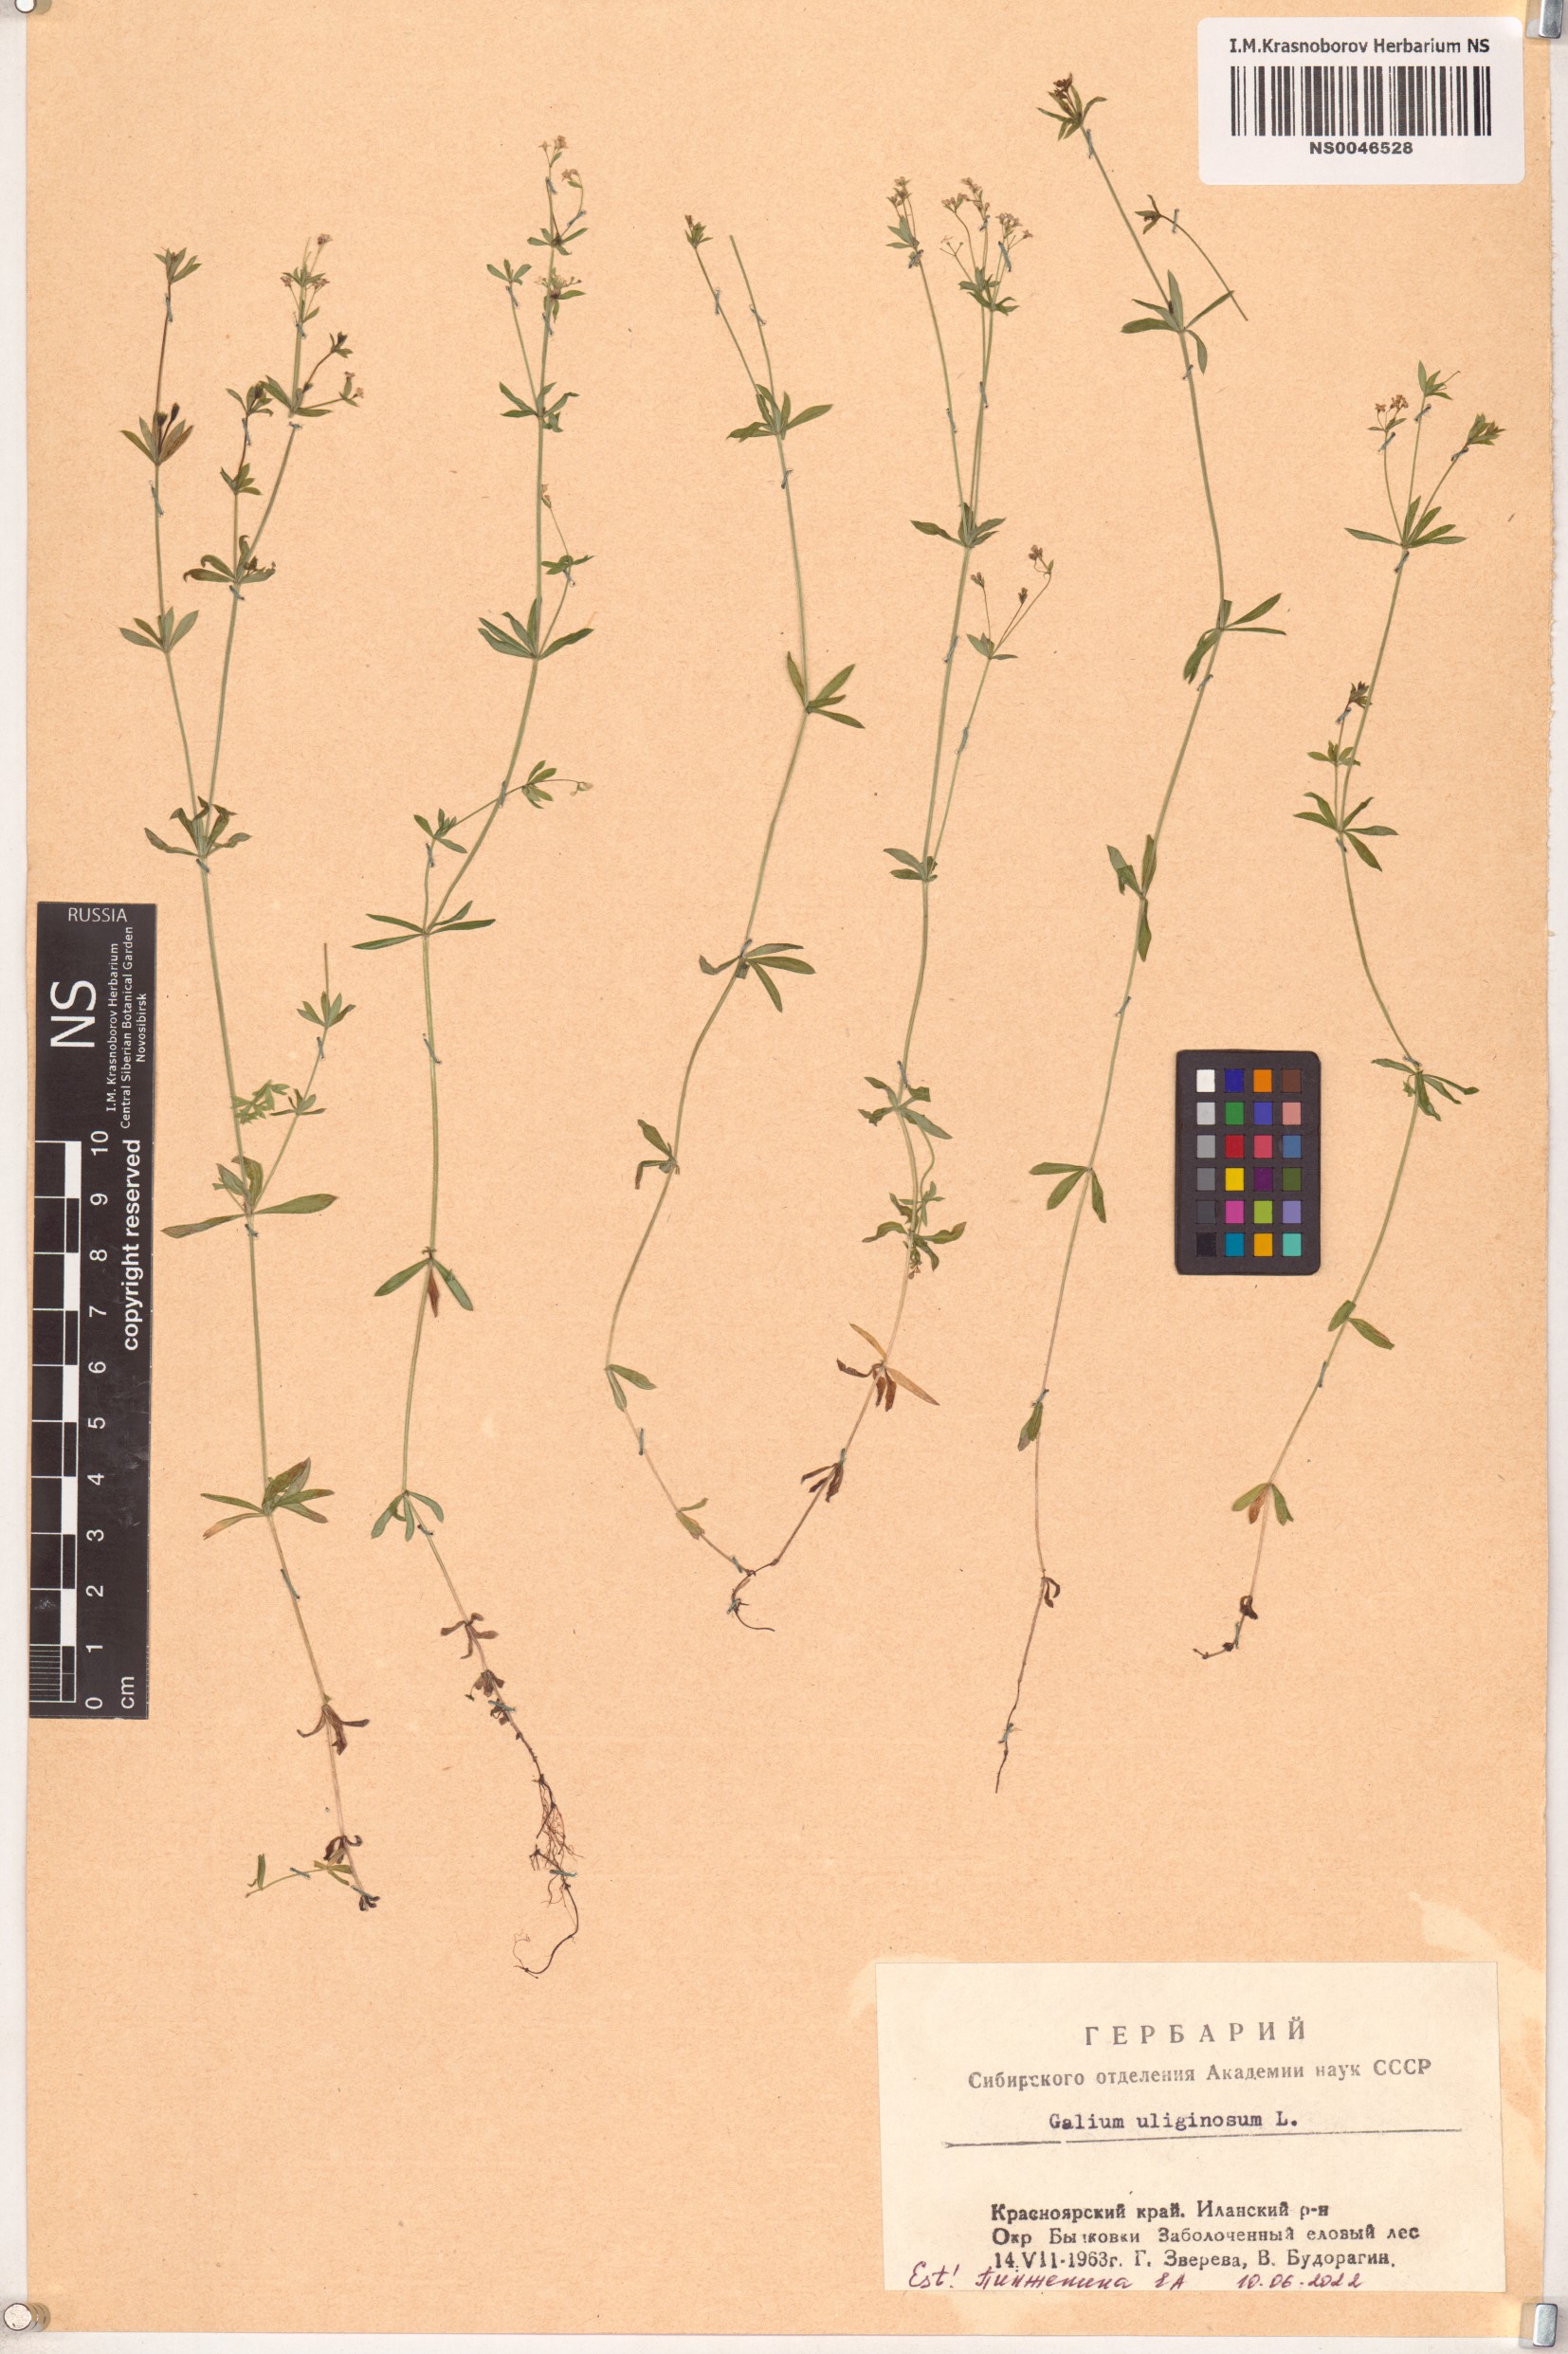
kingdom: Plantae
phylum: Tracheophyta
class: Magnoliopsida
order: Gentianales
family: Rubiaceae
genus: Galium
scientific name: Galium uliginosum
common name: Fen bedstraw
